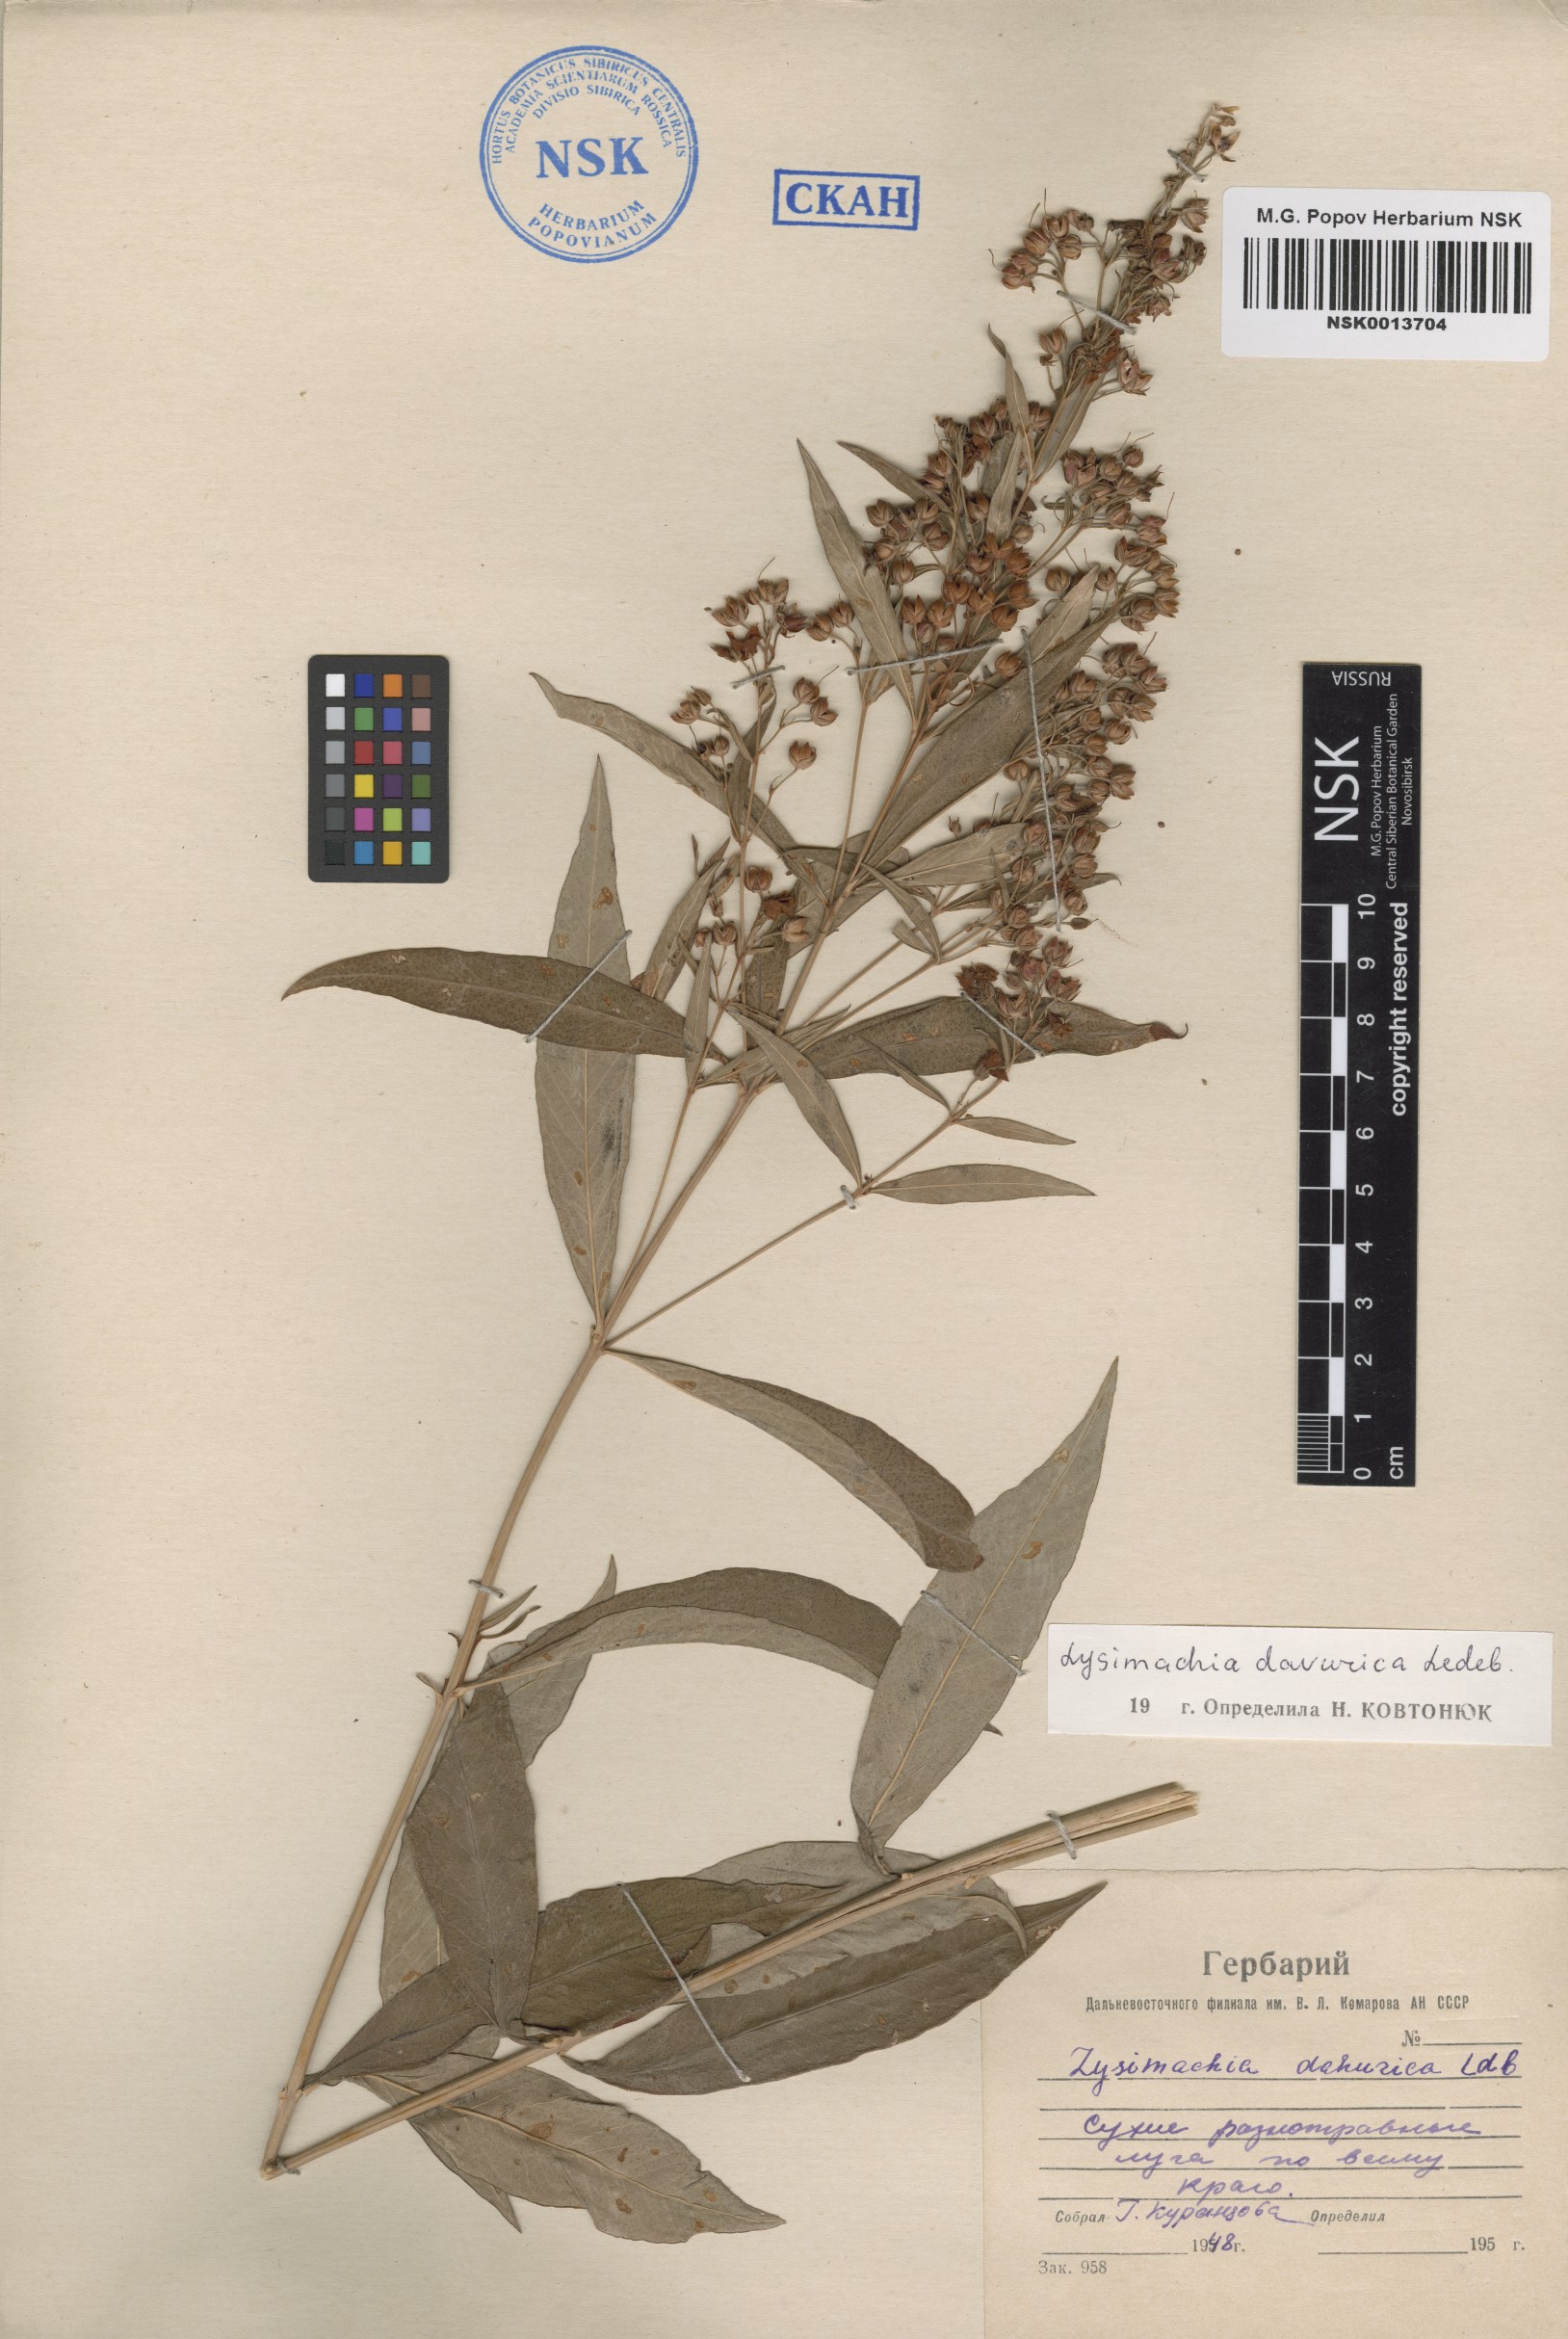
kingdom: Plantae
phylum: Tracheophyta
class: Magnoliopsida
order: Ericales
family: Primulaceae
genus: Lysimachia
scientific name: Lysimachia davurica
